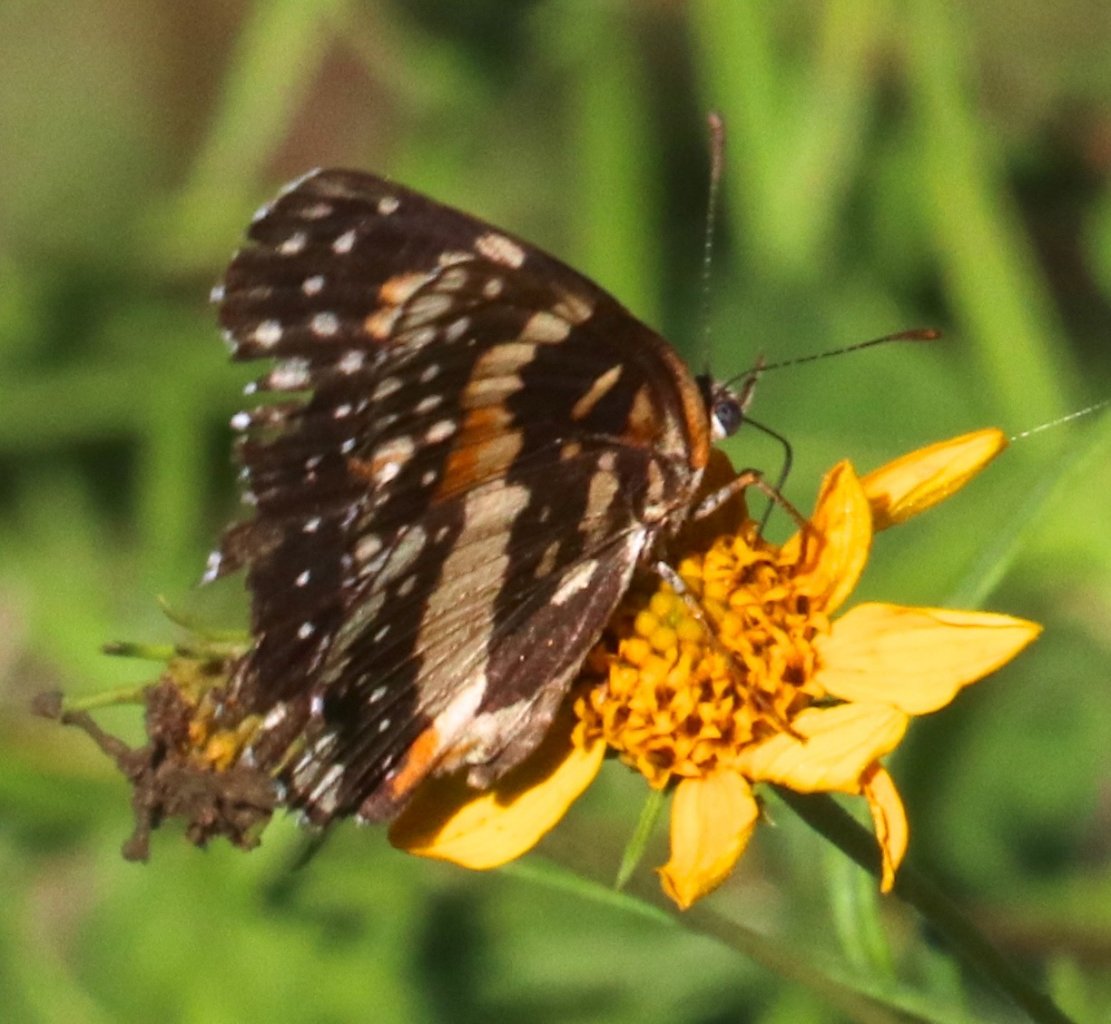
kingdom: Animalia
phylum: Arthropoda
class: Insecta
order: Lepidoptera
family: Nymphalidae
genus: Chlosyne
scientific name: Chlosyne lacinia
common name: Bordered Patch
